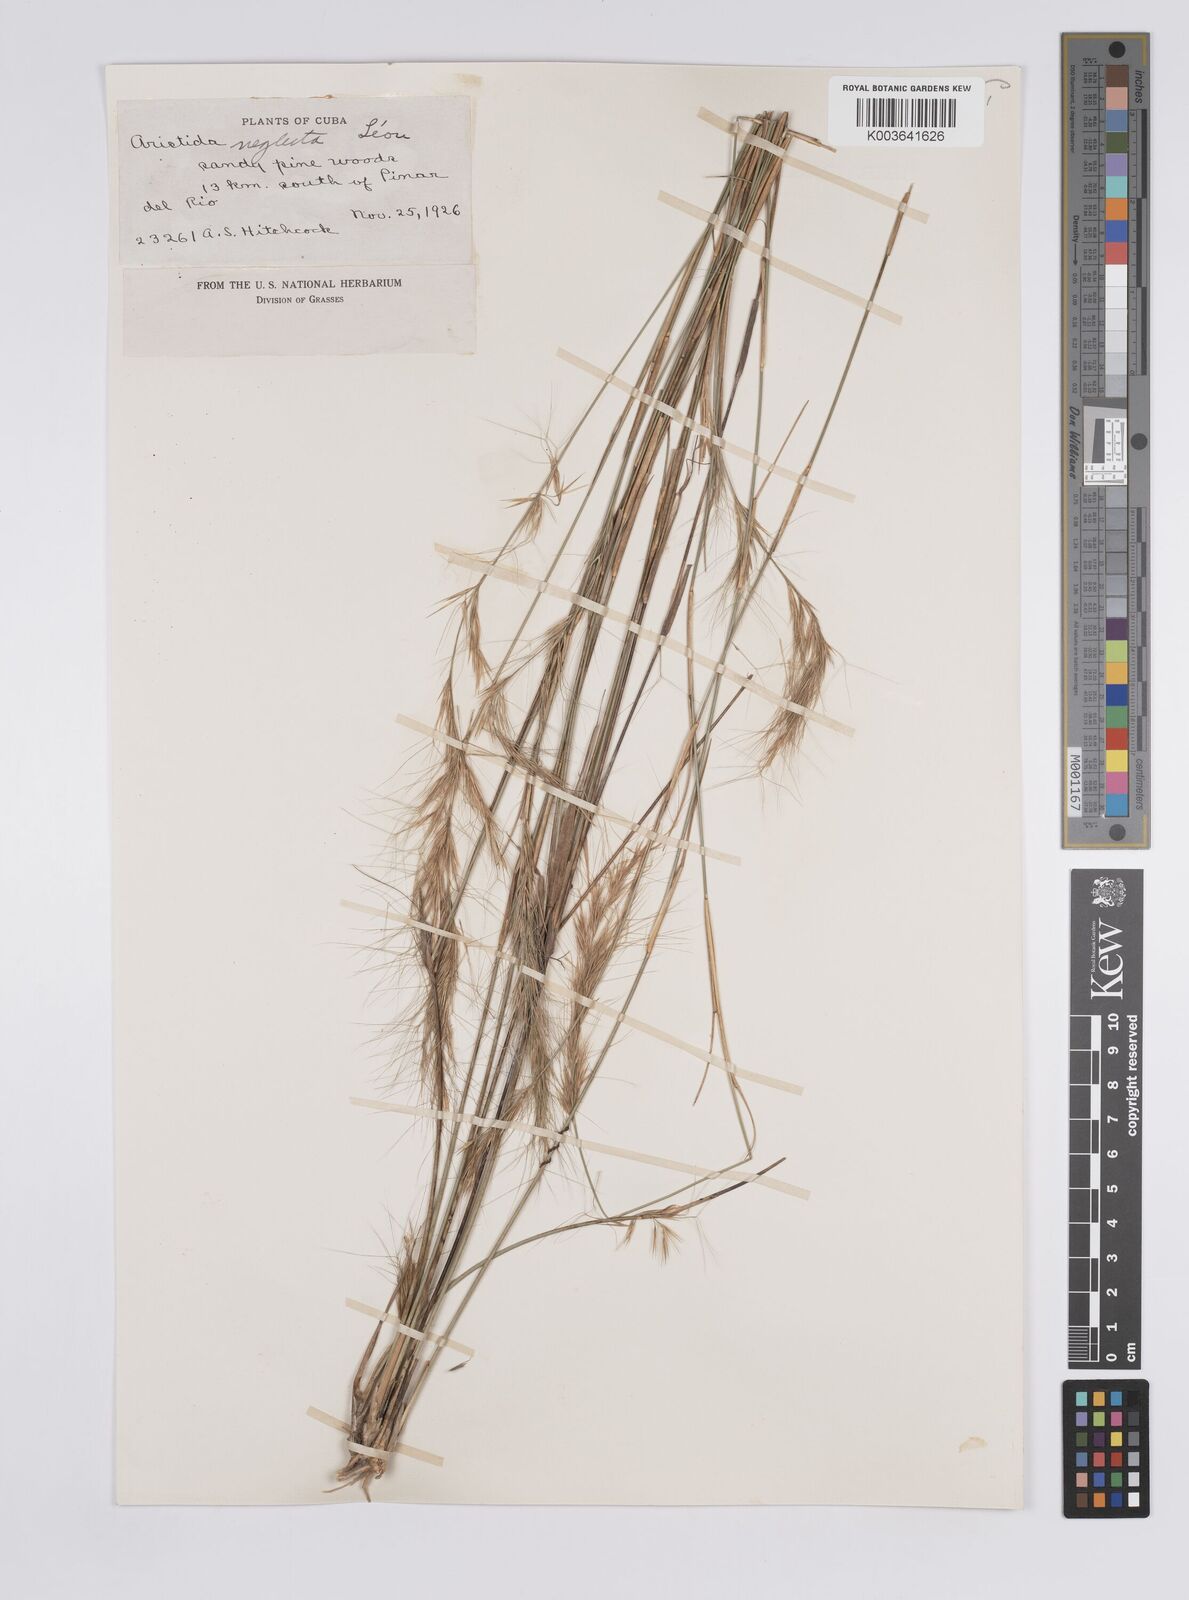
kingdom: Plantae
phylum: Tracheophyta
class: Liliopsida
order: Poales
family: Poaceae
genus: Aristida
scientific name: Aristida neglecta
